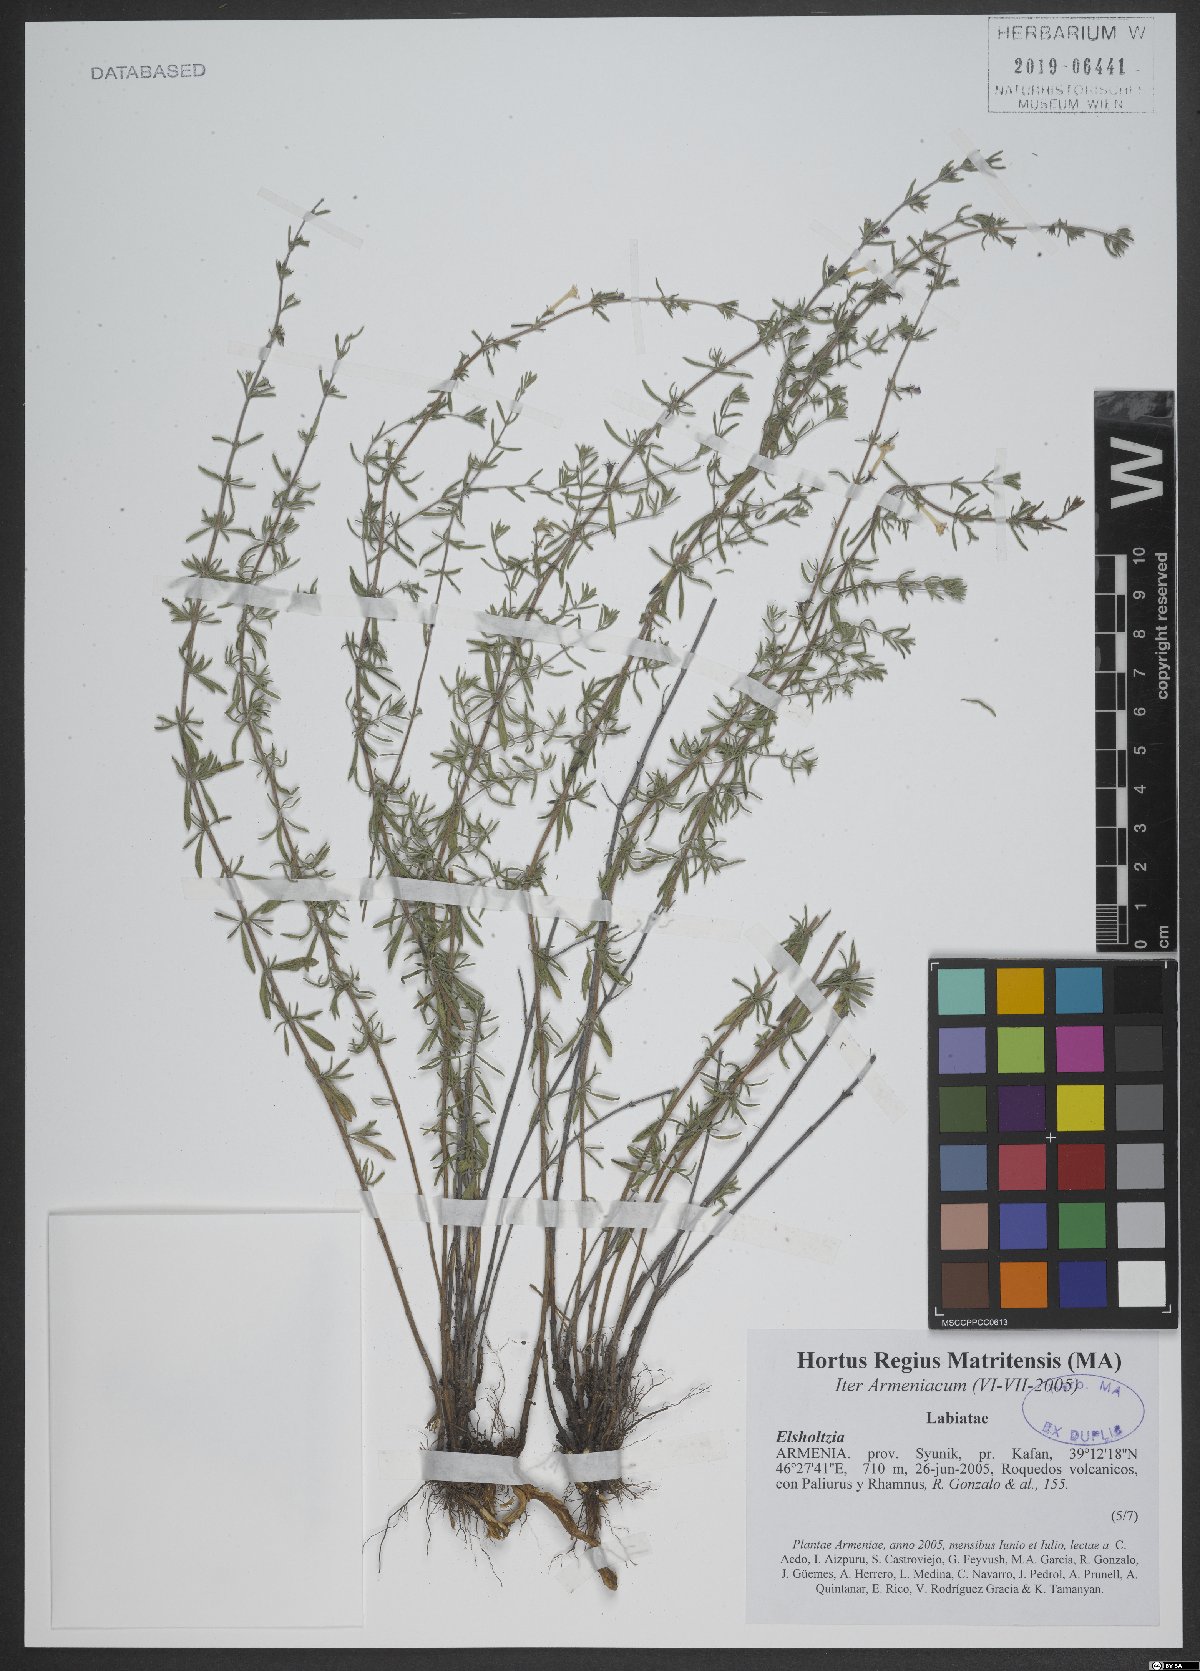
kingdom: Plantae
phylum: Tracheophyta
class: Magnoliopsida
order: Lamiales
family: Lamiaceae
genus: Elsholtzia
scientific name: Elsholtzia
